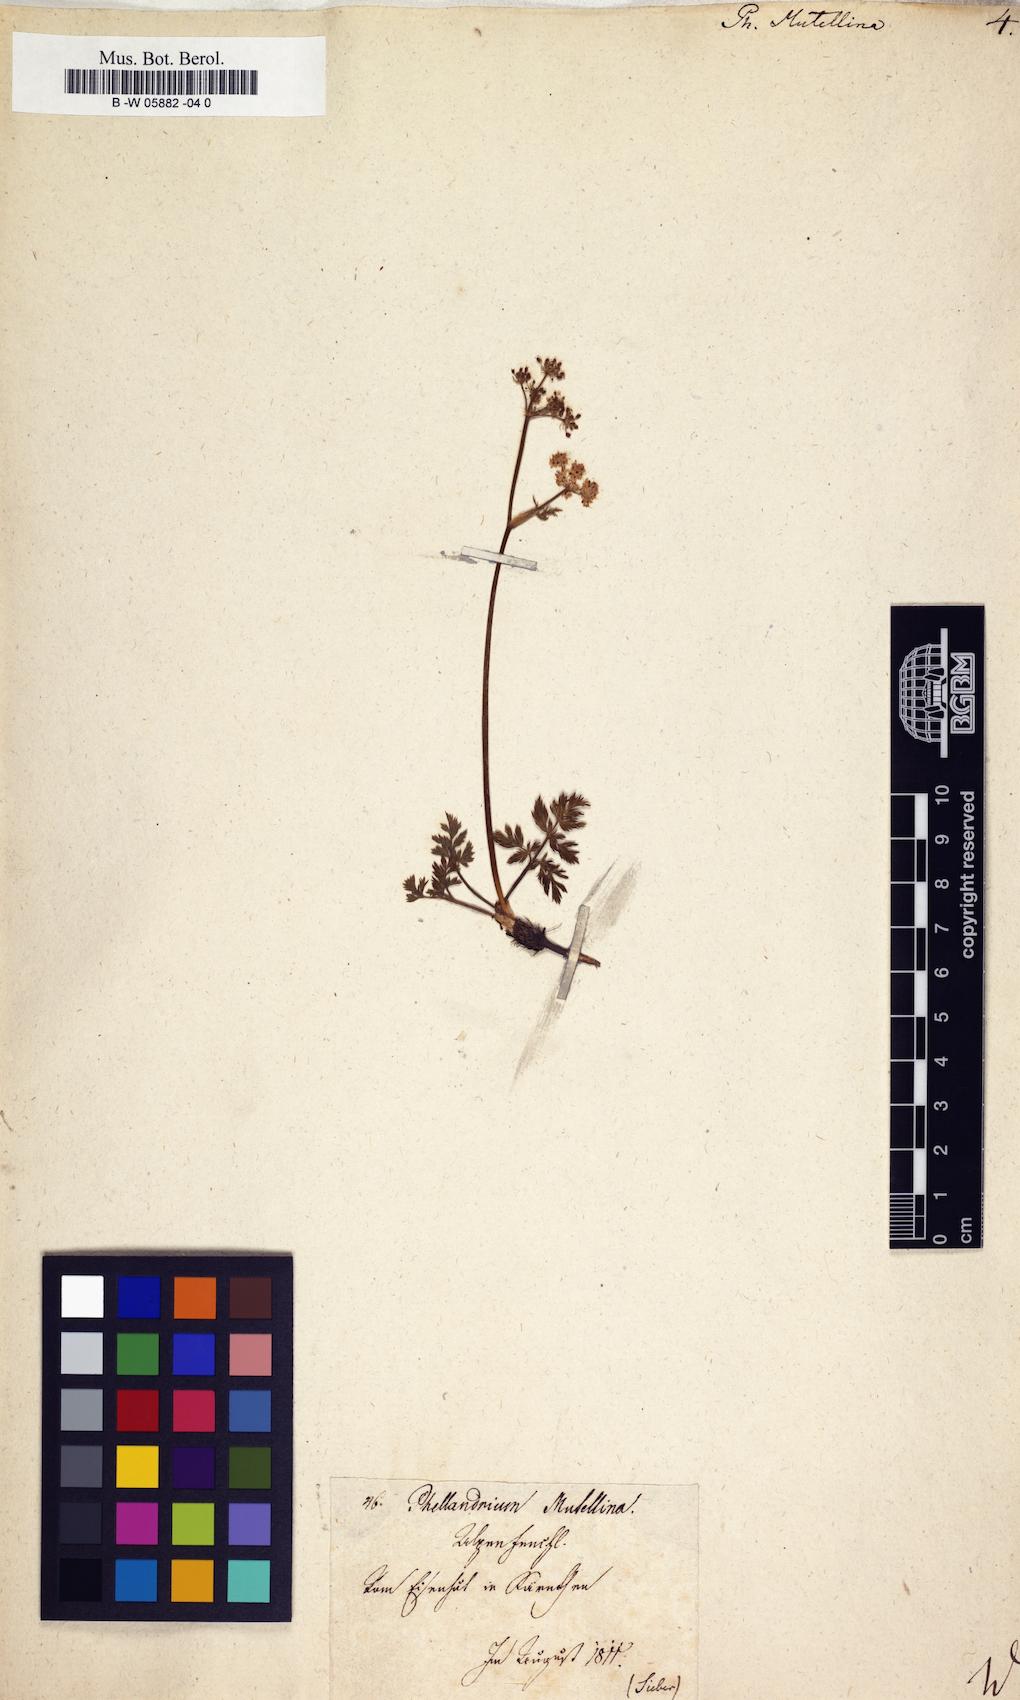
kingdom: Plantae
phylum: Tracheophyta
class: Magnoliopsida
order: Apiales
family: Apiaceae
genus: Mutellina
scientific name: Mutellina adonidifolia
